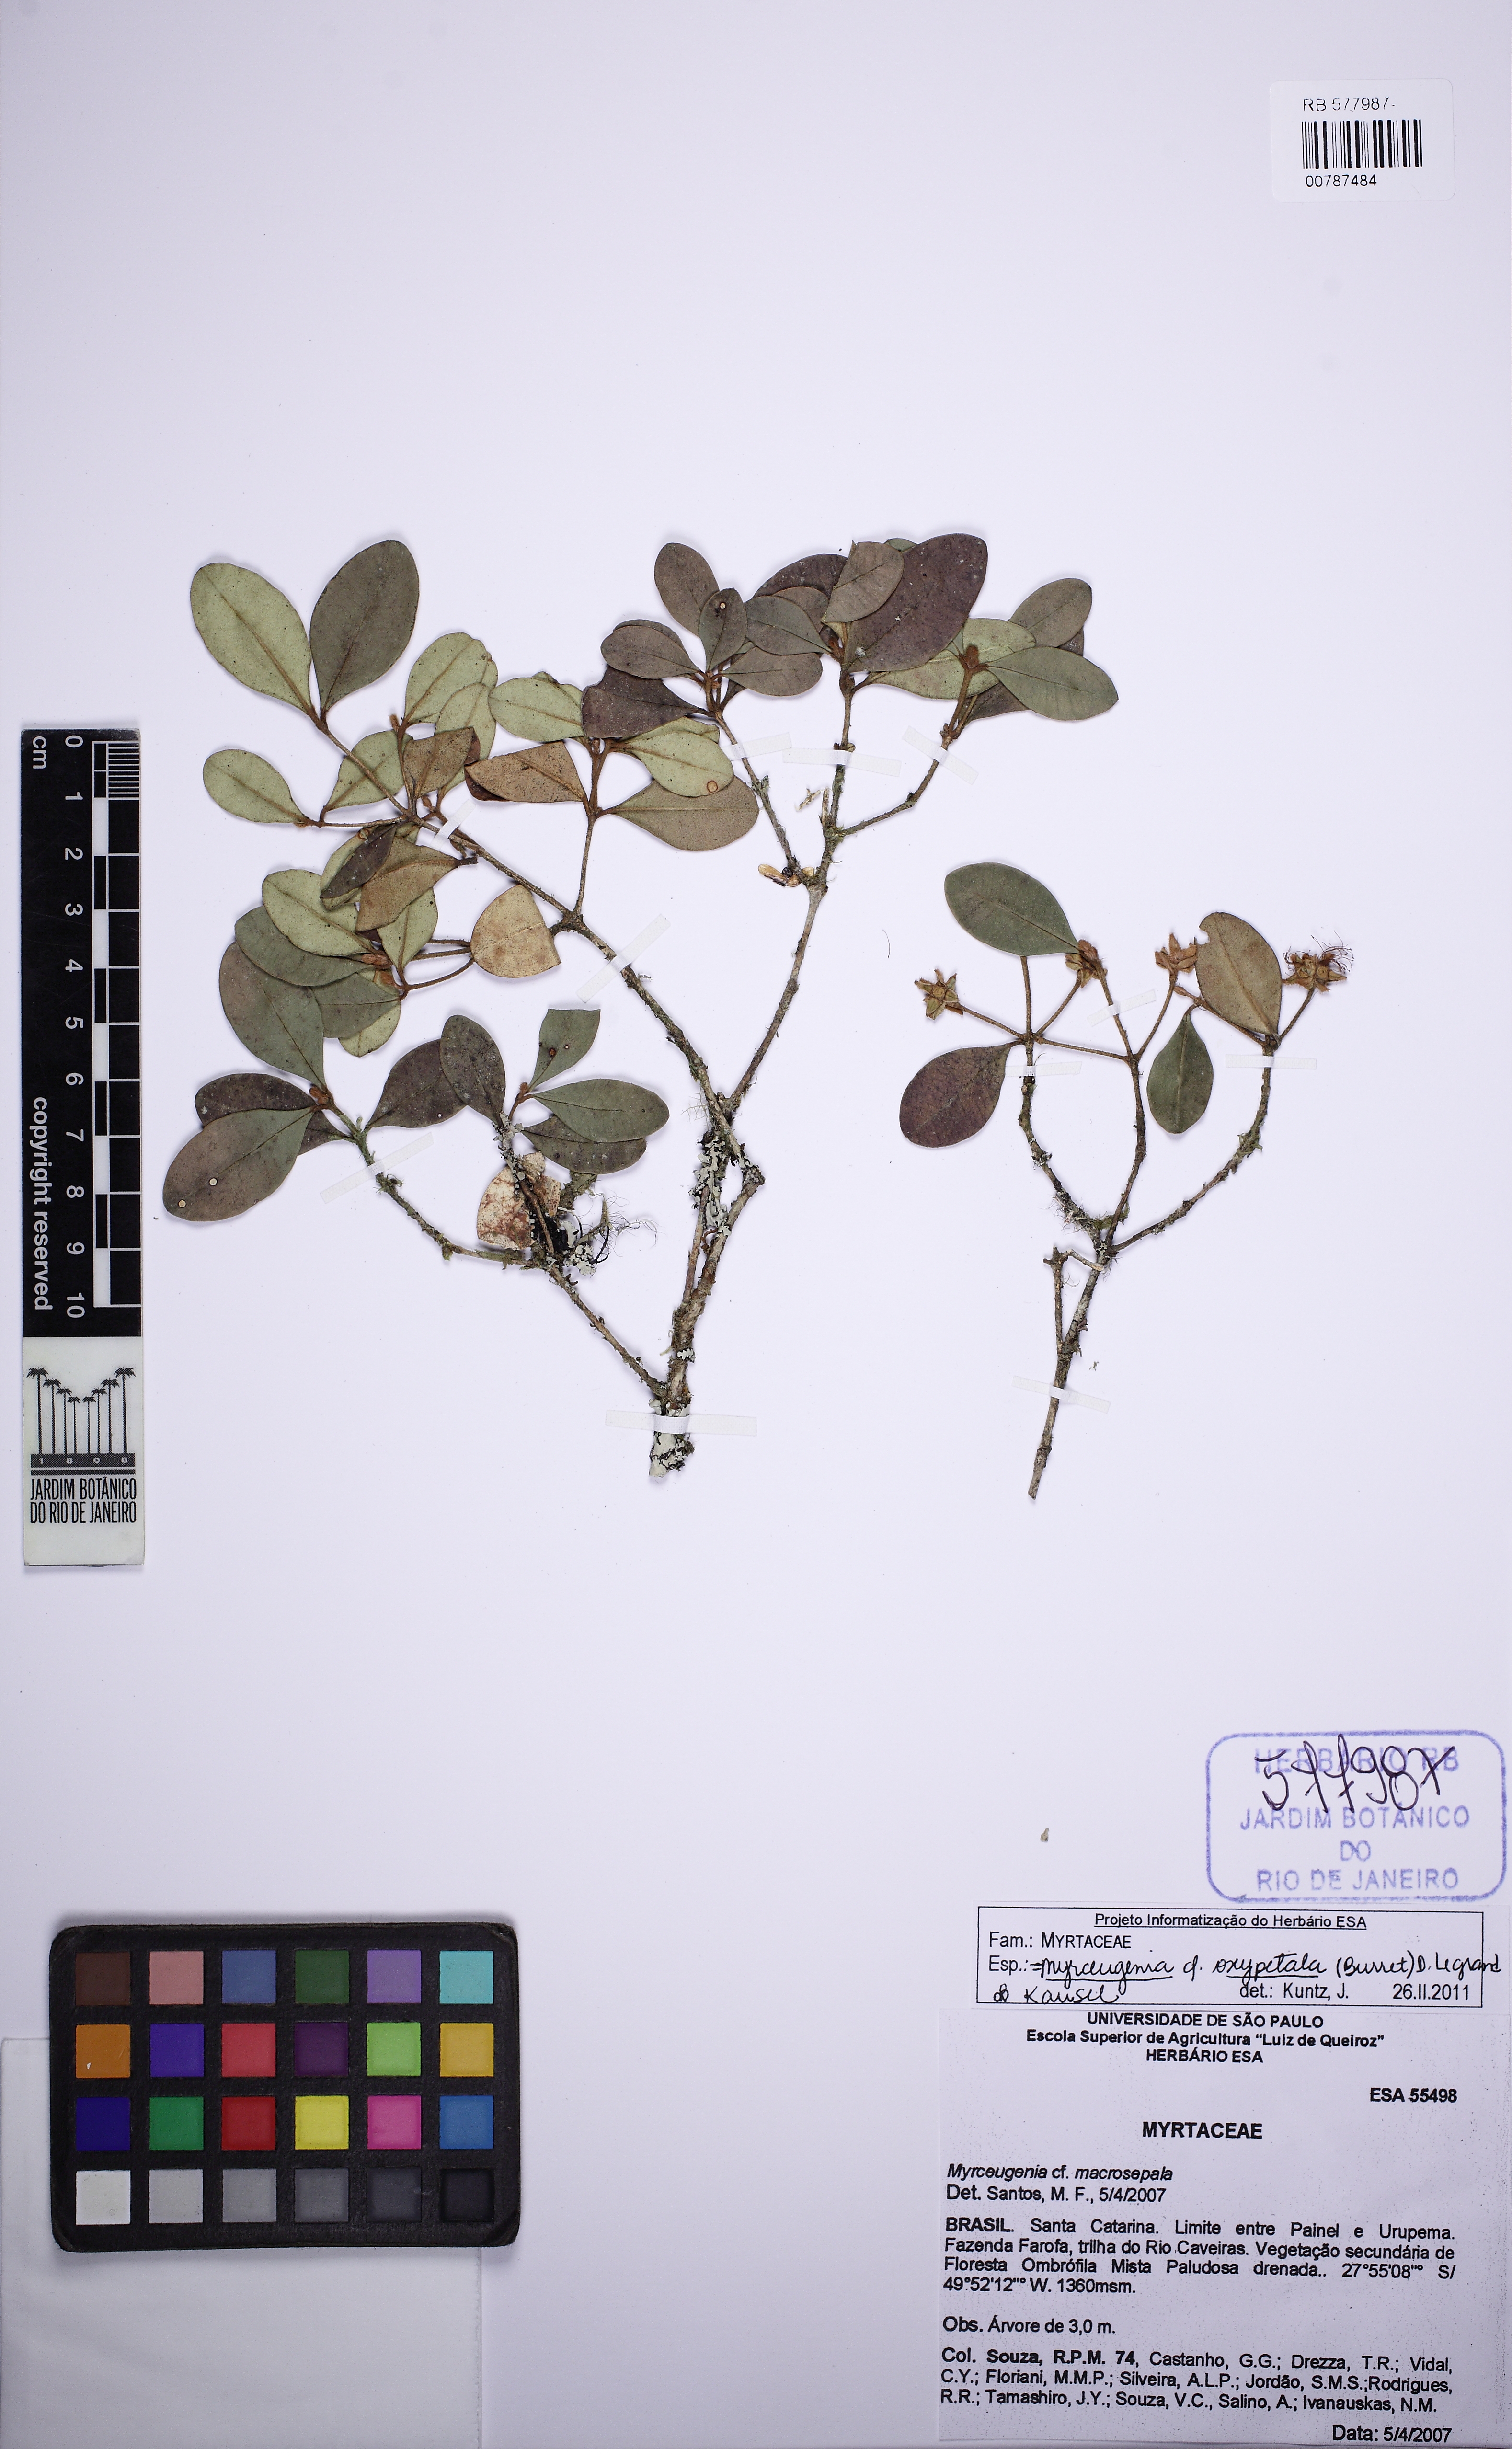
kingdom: Plantae
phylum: Tracheophyta
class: Magnoliopsida
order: Myrtales
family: Myrtaceae
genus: Myrceugenia
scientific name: Myrceugenia oxysepala
